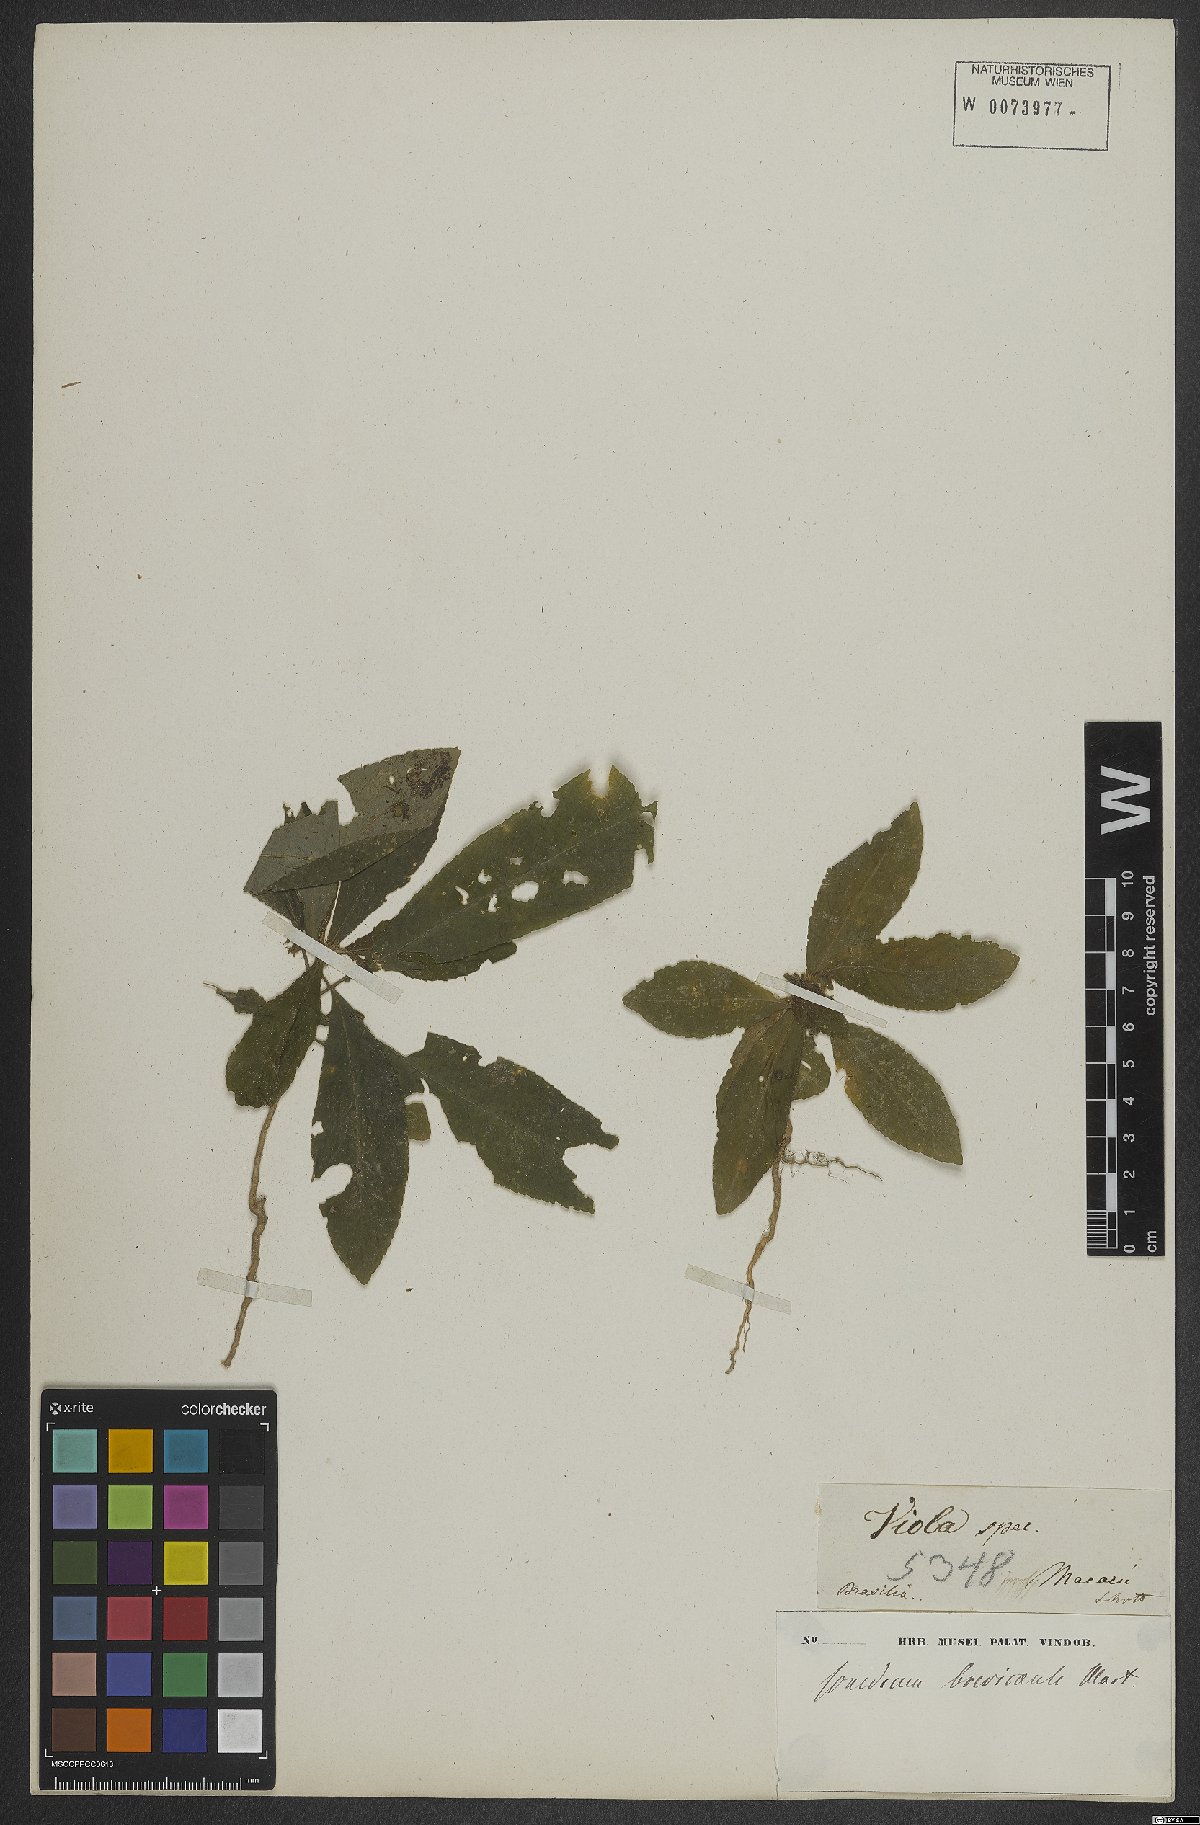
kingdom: Plantae
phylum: Tracheophyta
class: Magnoliopsida
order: Malpighiales
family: Violaceae
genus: Pombalia
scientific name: Pombalia brevicaulis
